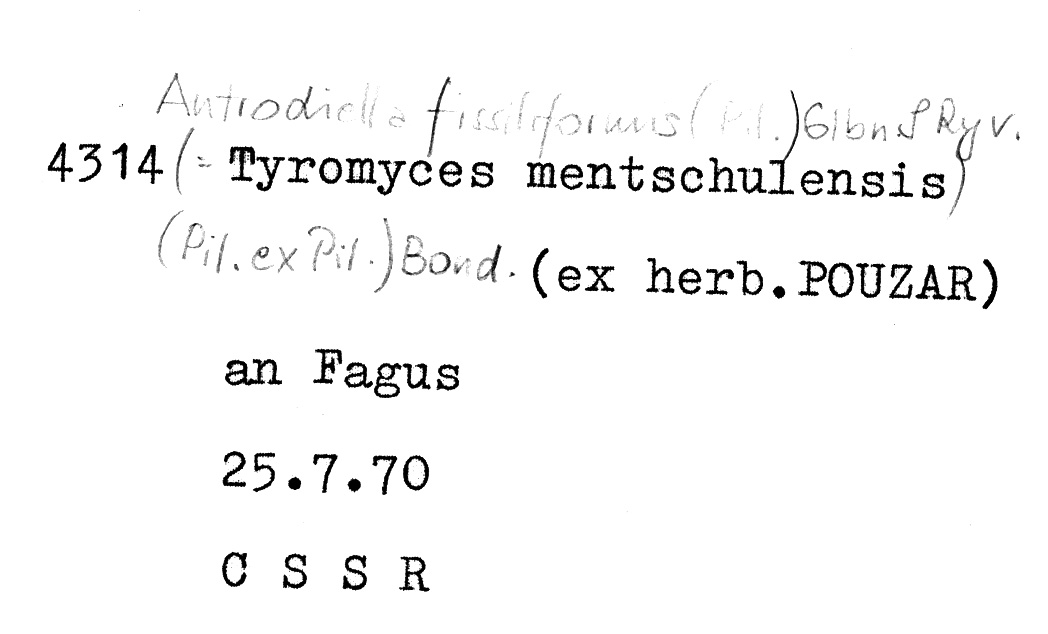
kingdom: Plantae
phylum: Tracheophyta
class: Magnoliopsida
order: Fagales
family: Fagaceae
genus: Fagus
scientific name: Fagus sylvatica
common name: Beech
